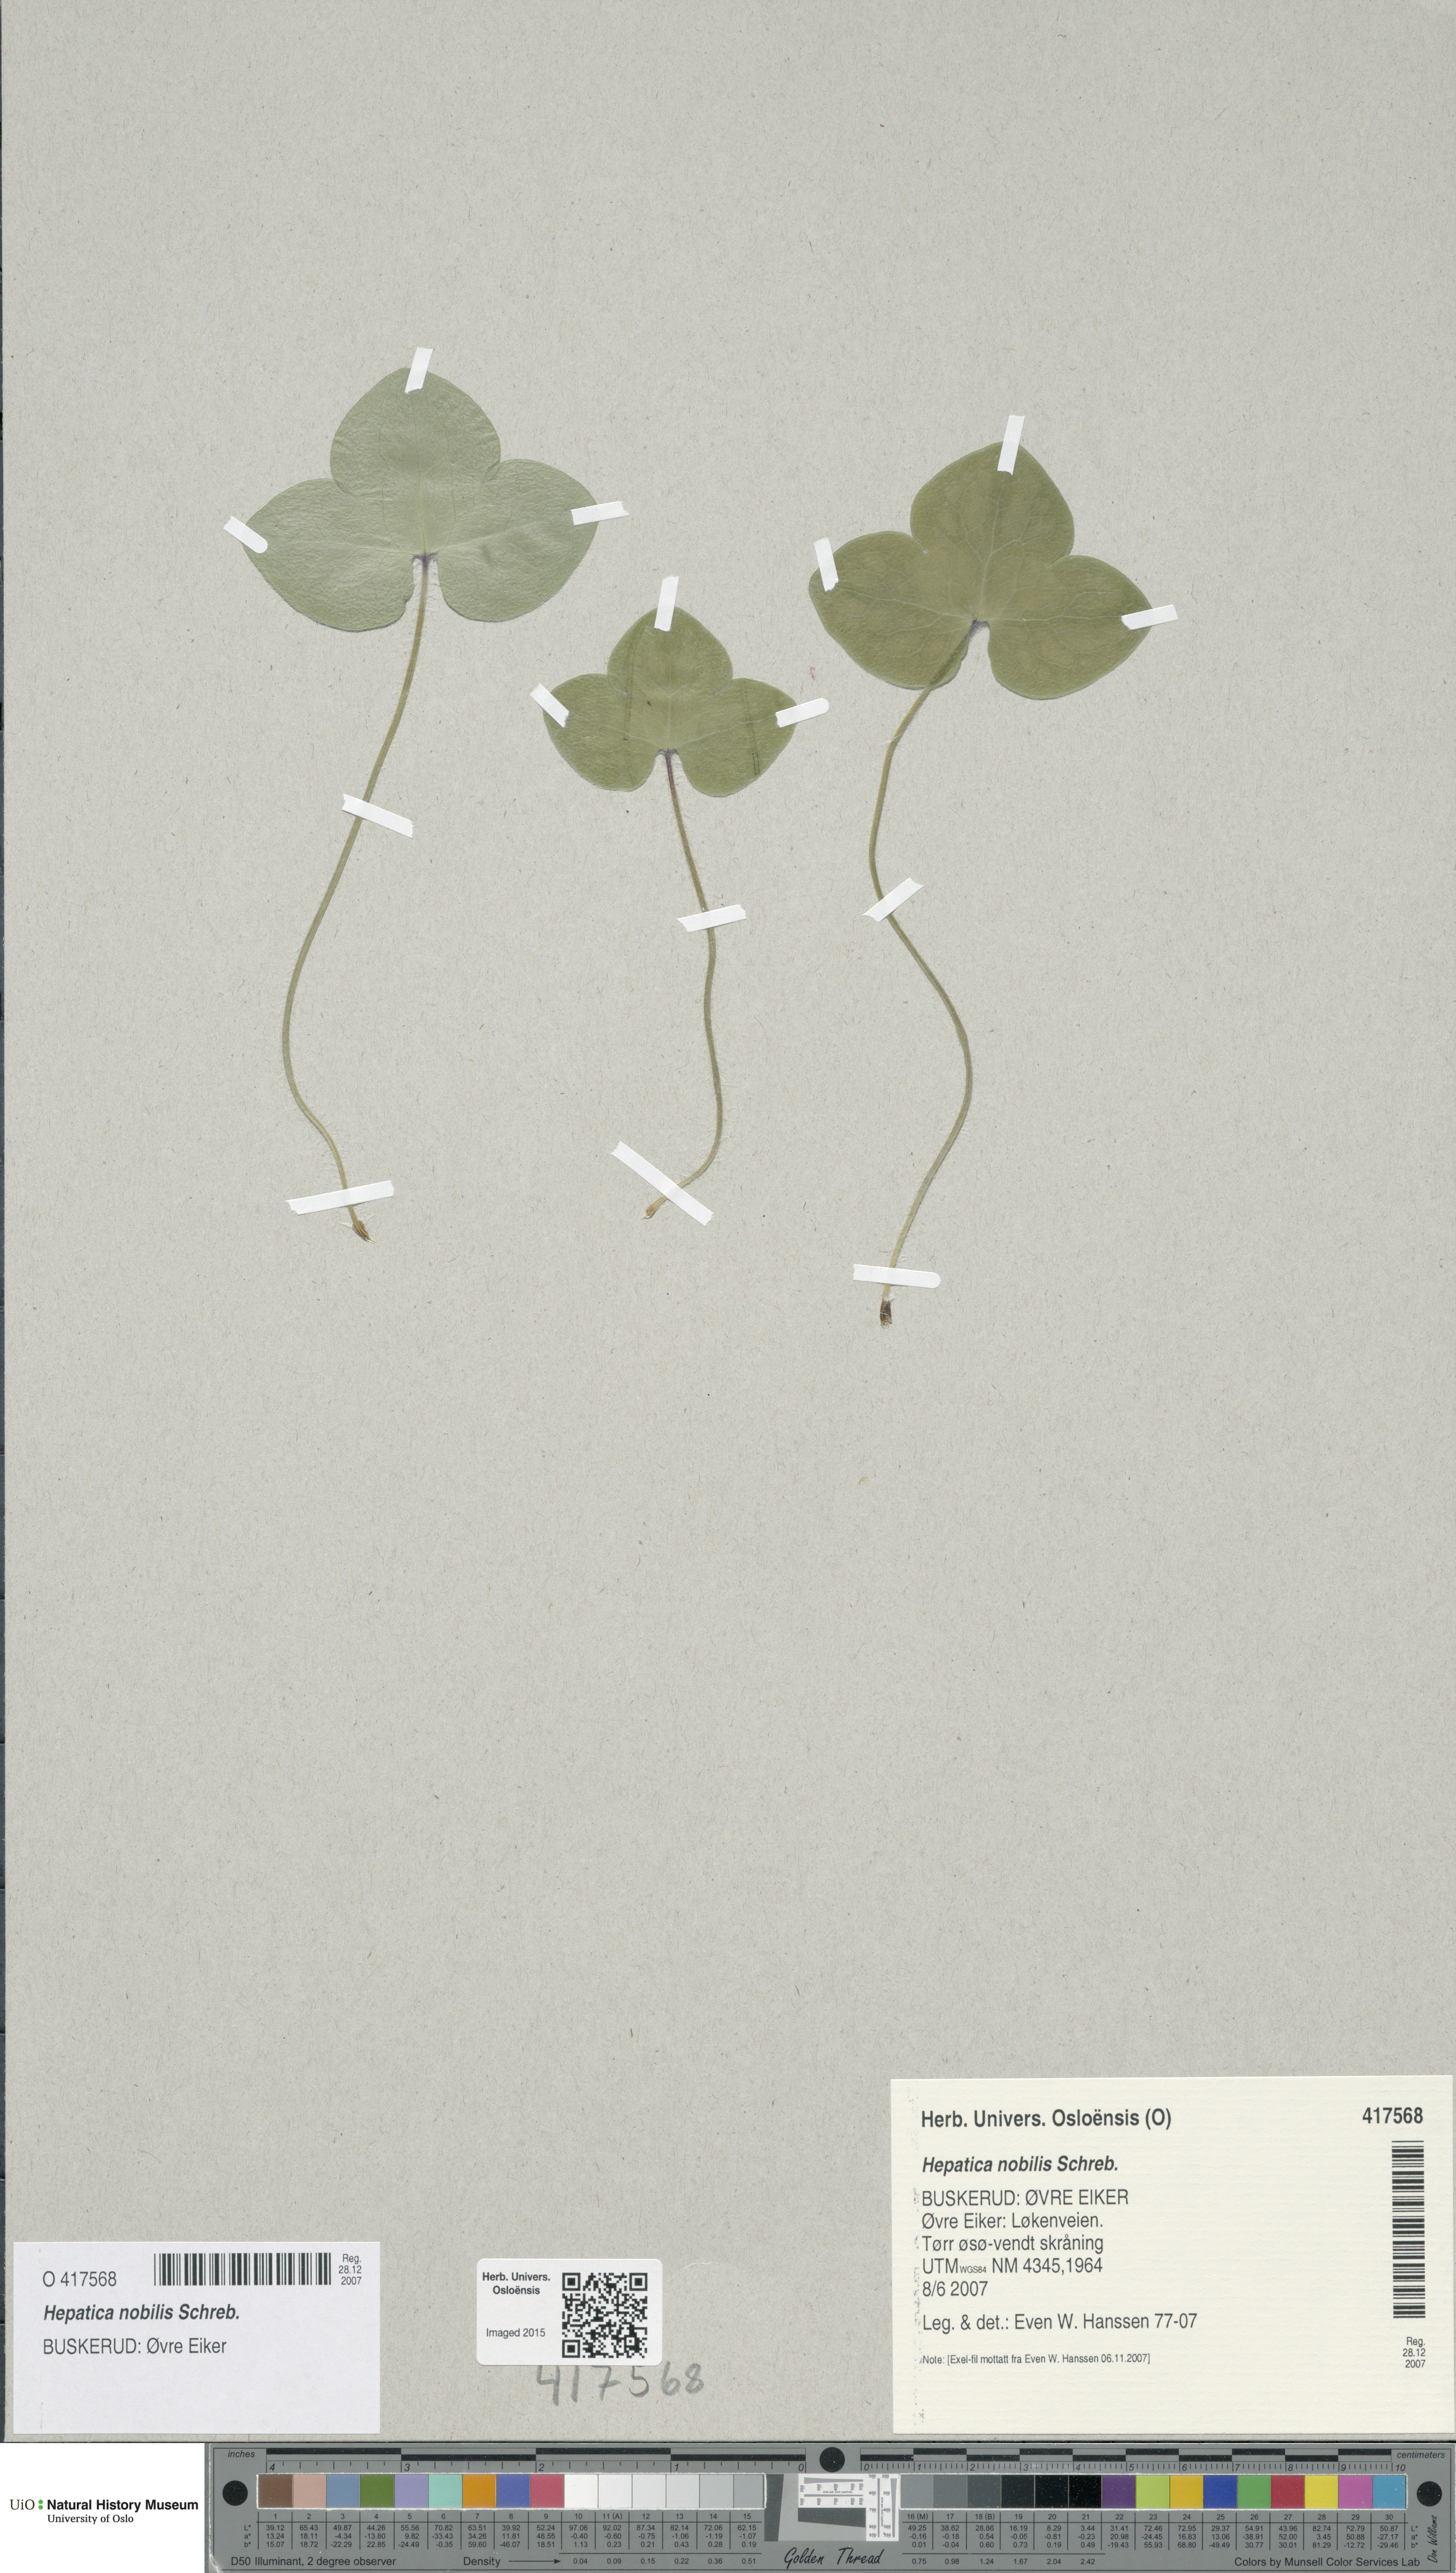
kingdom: Plantae
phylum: Tracheophyta
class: Magnoliopsida
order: Ranunculales
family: Ranunculaceae
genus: Hepatica
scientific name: Hepatica nobilis
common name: Liverleaf
